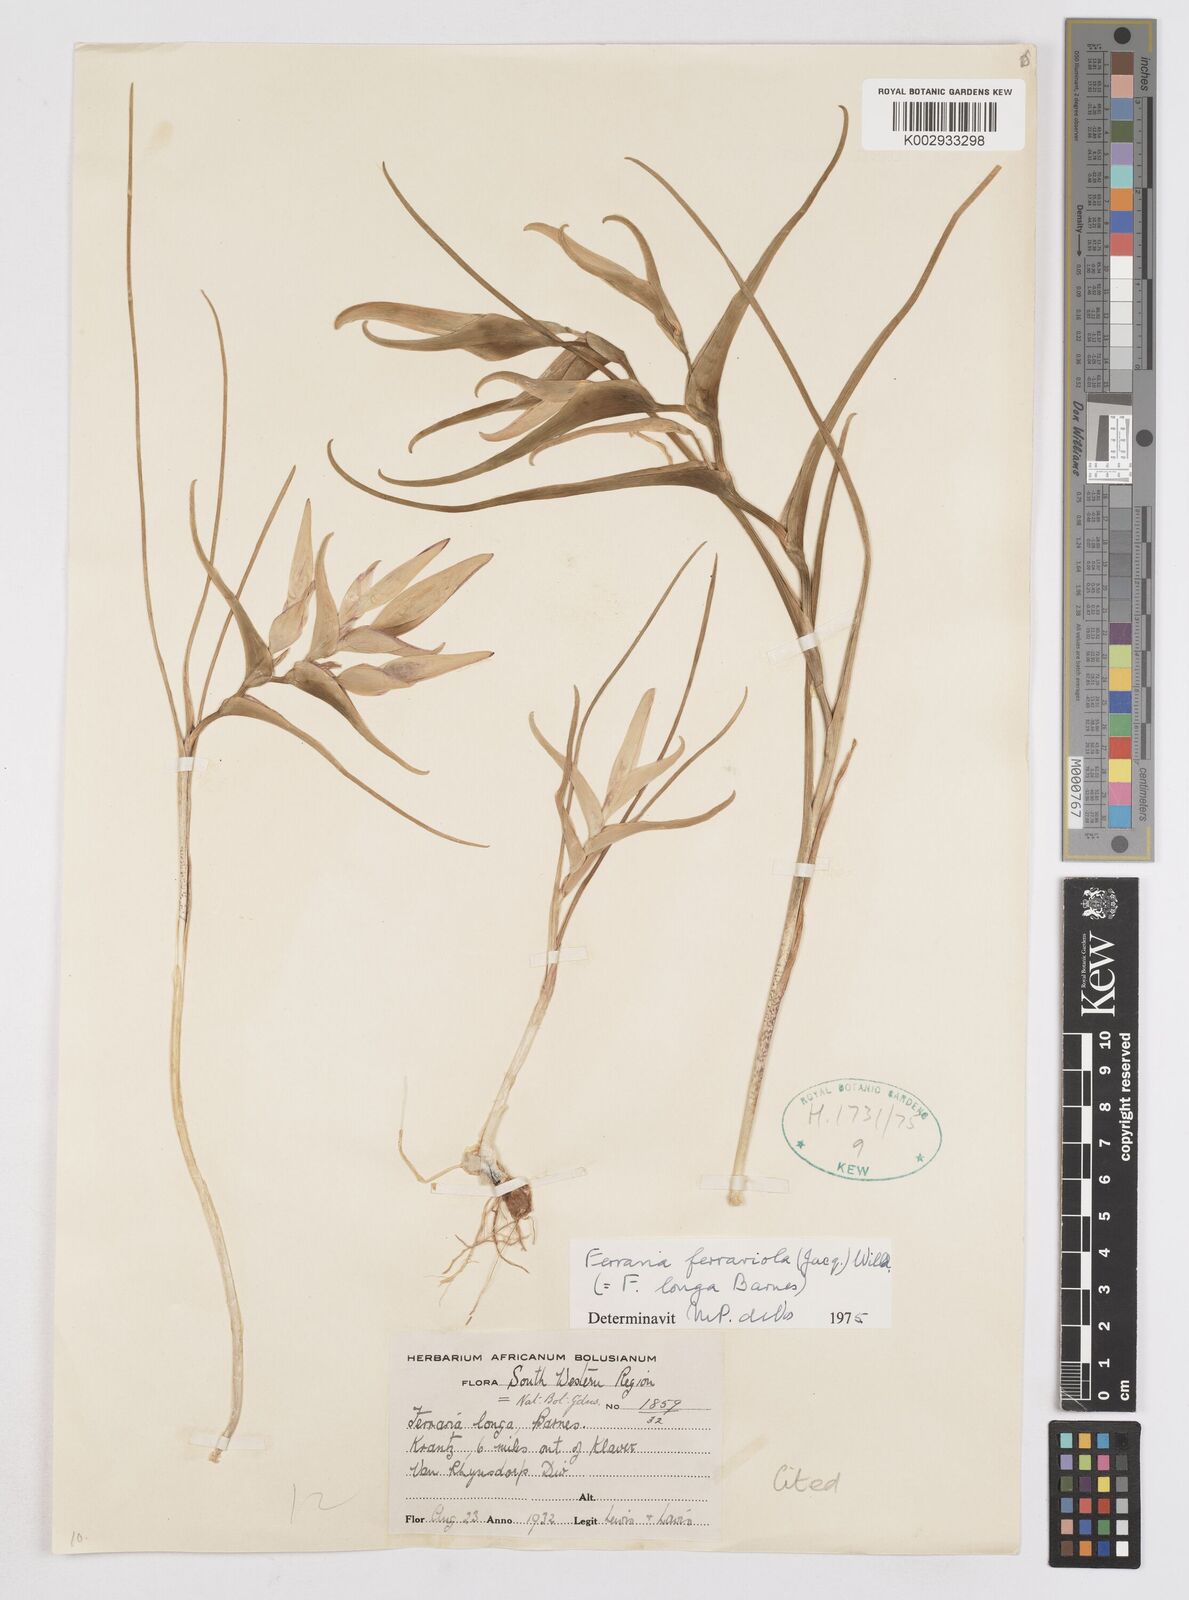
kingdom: Plantae
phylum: Tracheophyta
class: Liliopsida
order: Asparagales
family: Iridaceae
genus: Ferraria
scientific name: Ferraria ferrariola
